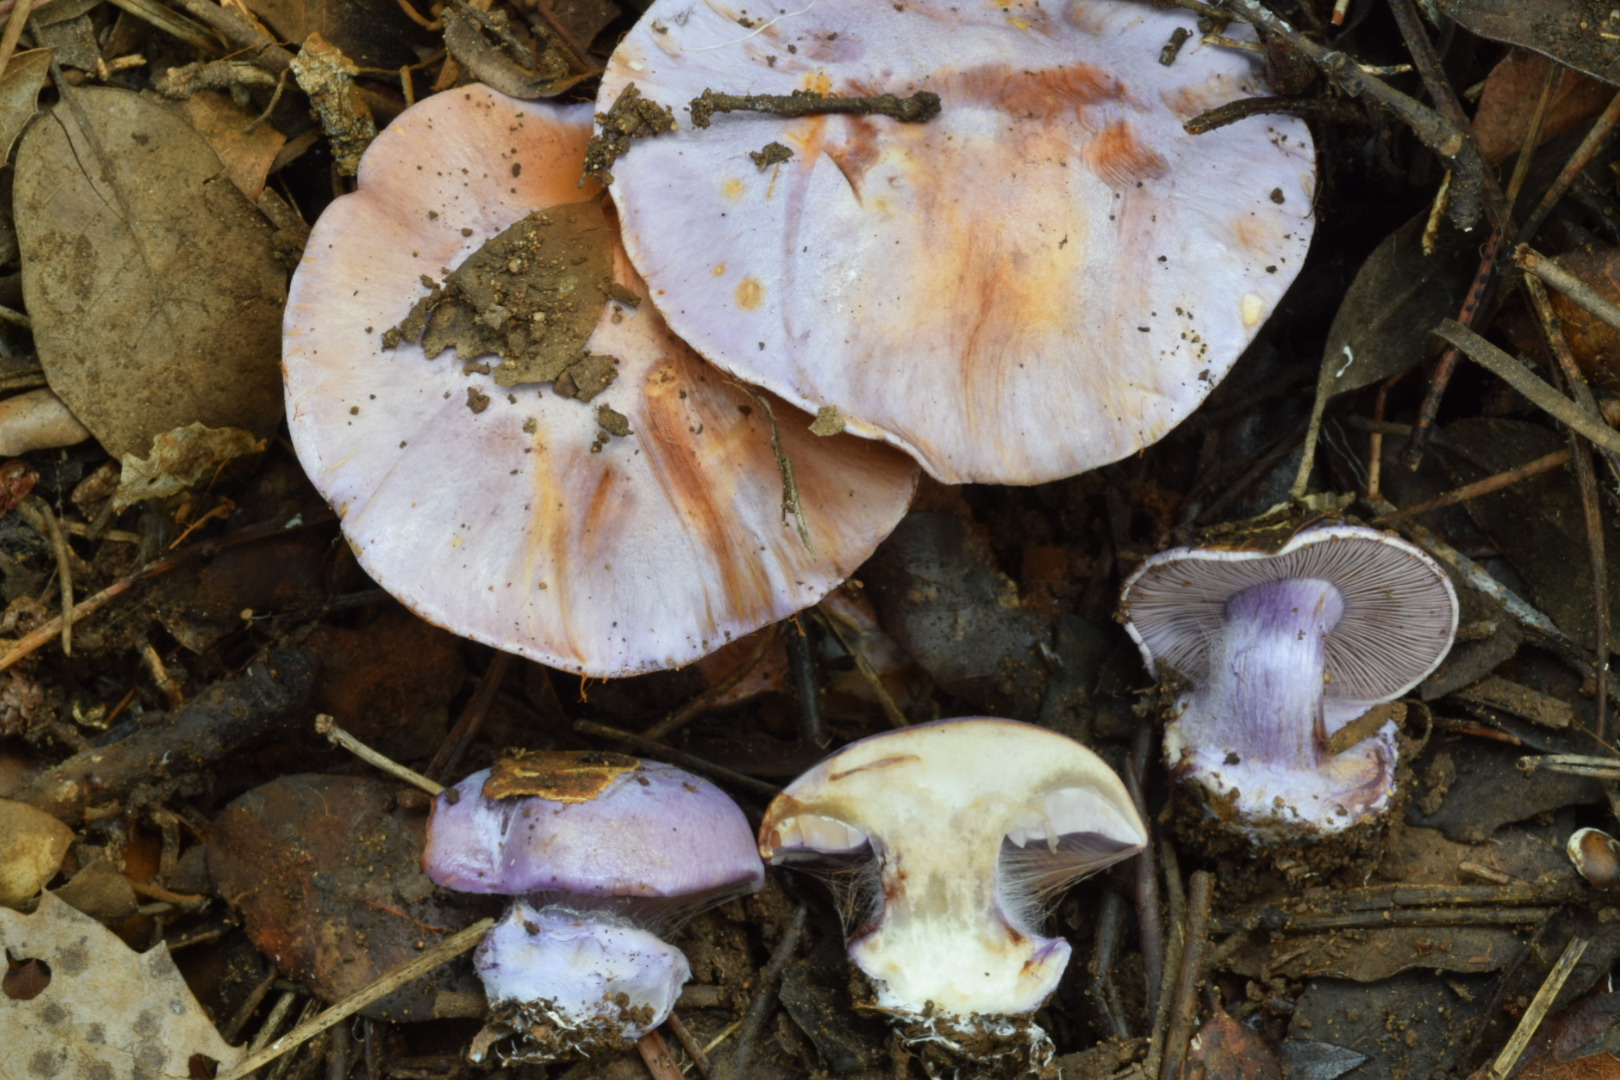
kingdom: Fungi
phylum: Basidiomycota
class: Agaricomycetes
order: Agaricales
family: Cortinariaceae
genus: Calonarius
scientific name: Calonarius nymphicolor
